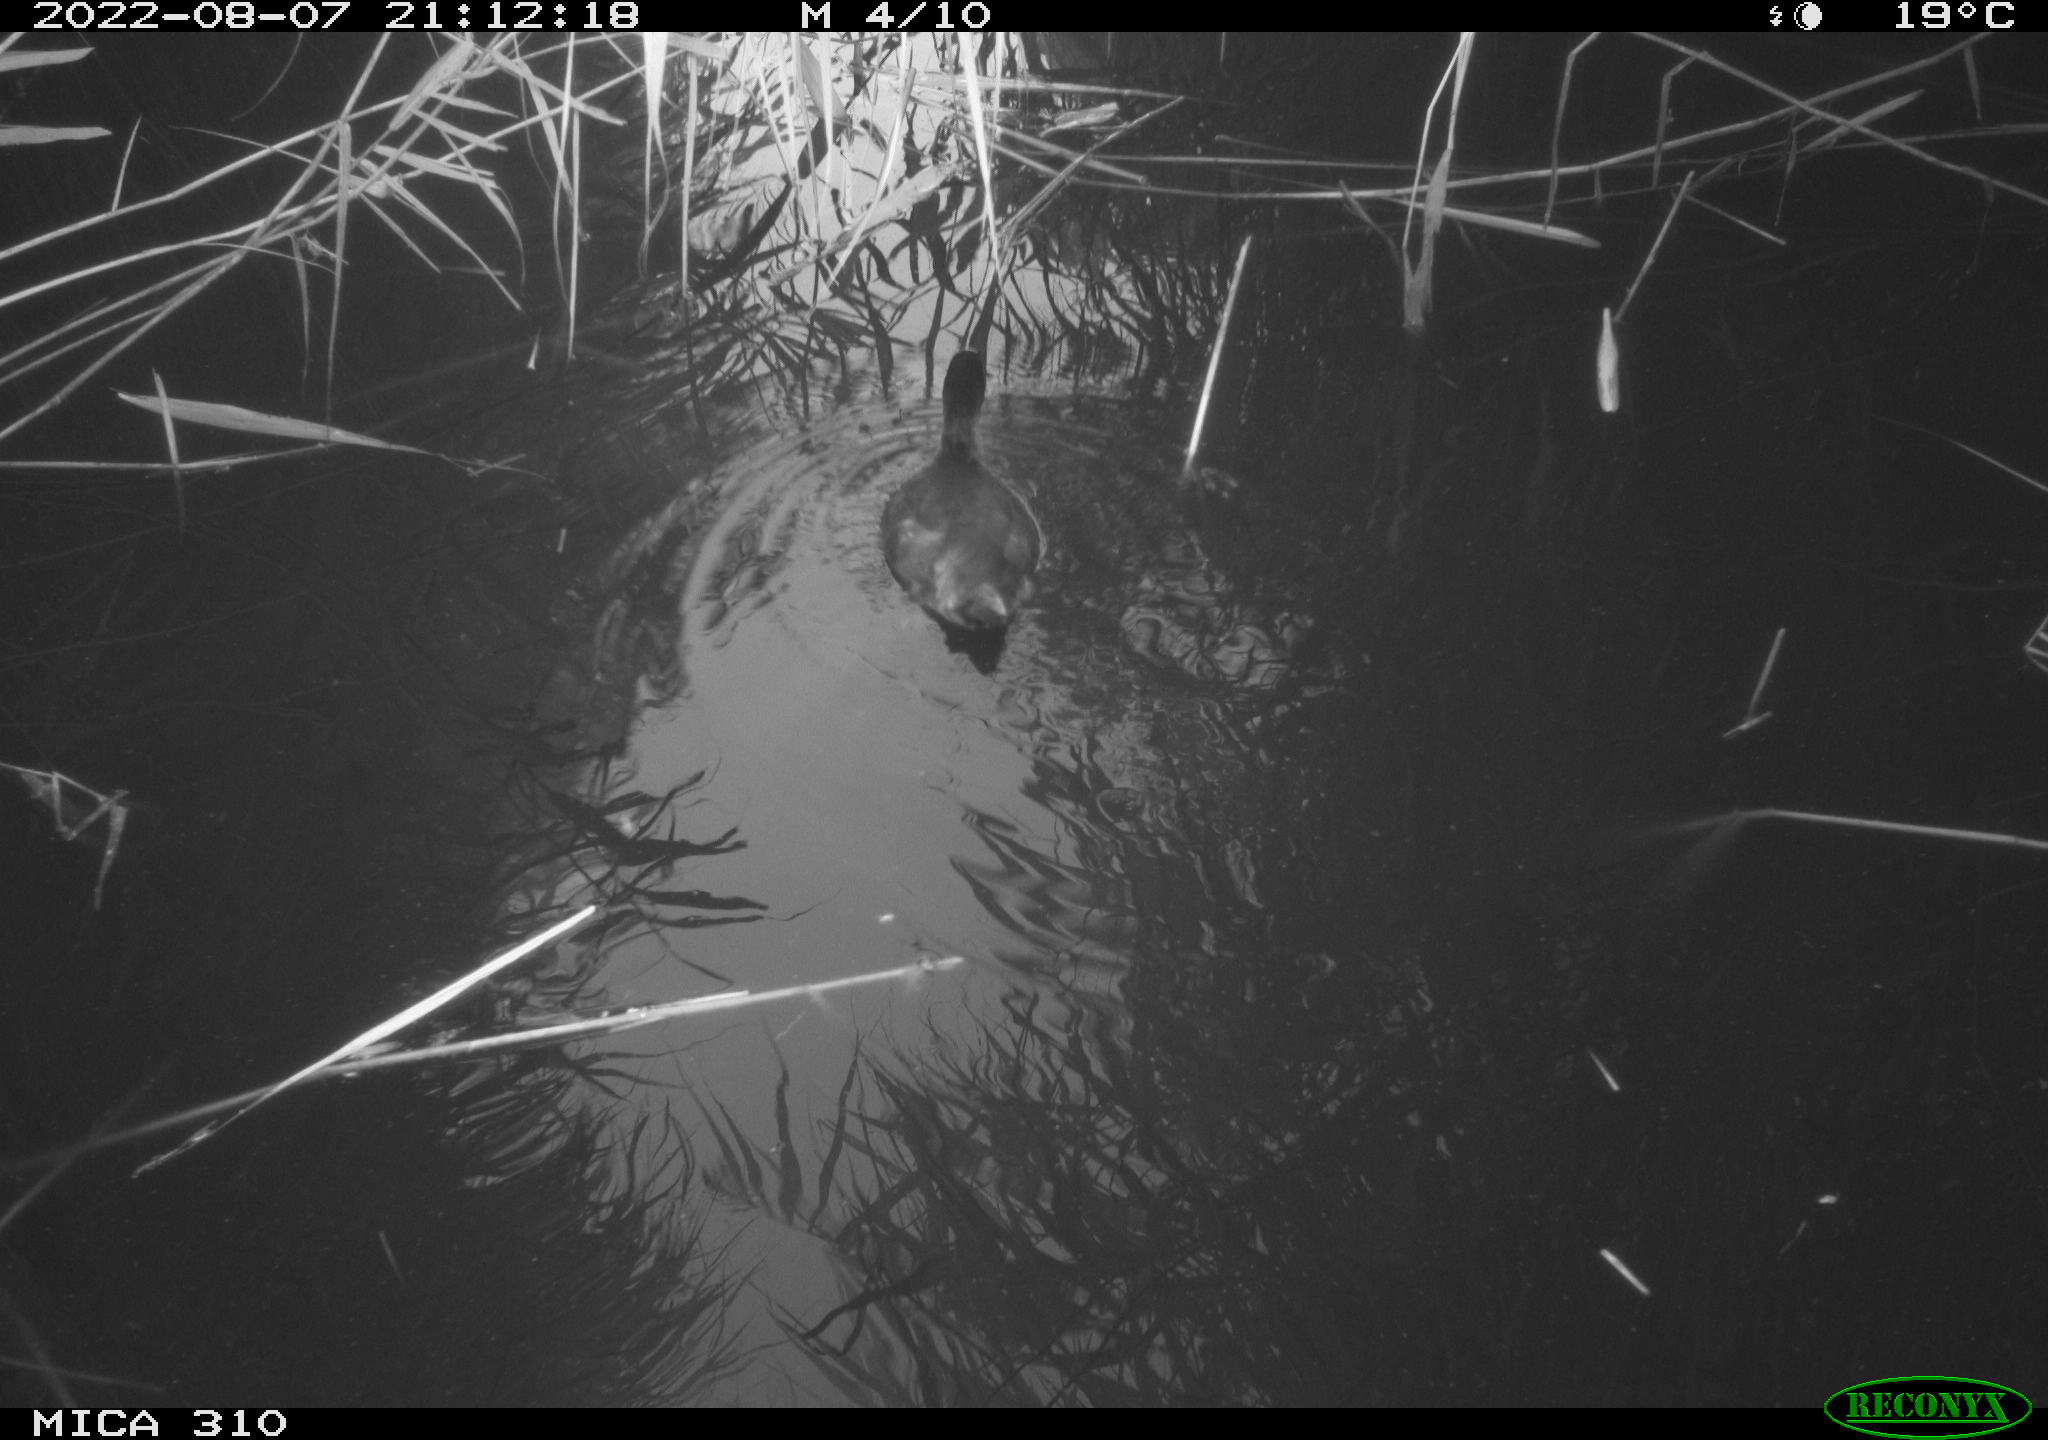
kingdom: Animalia
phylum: Chordata
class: Aves
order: Gruiformes
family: Rallidae
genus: Fulica
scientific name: Fulica atra
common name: Eurasian coot
